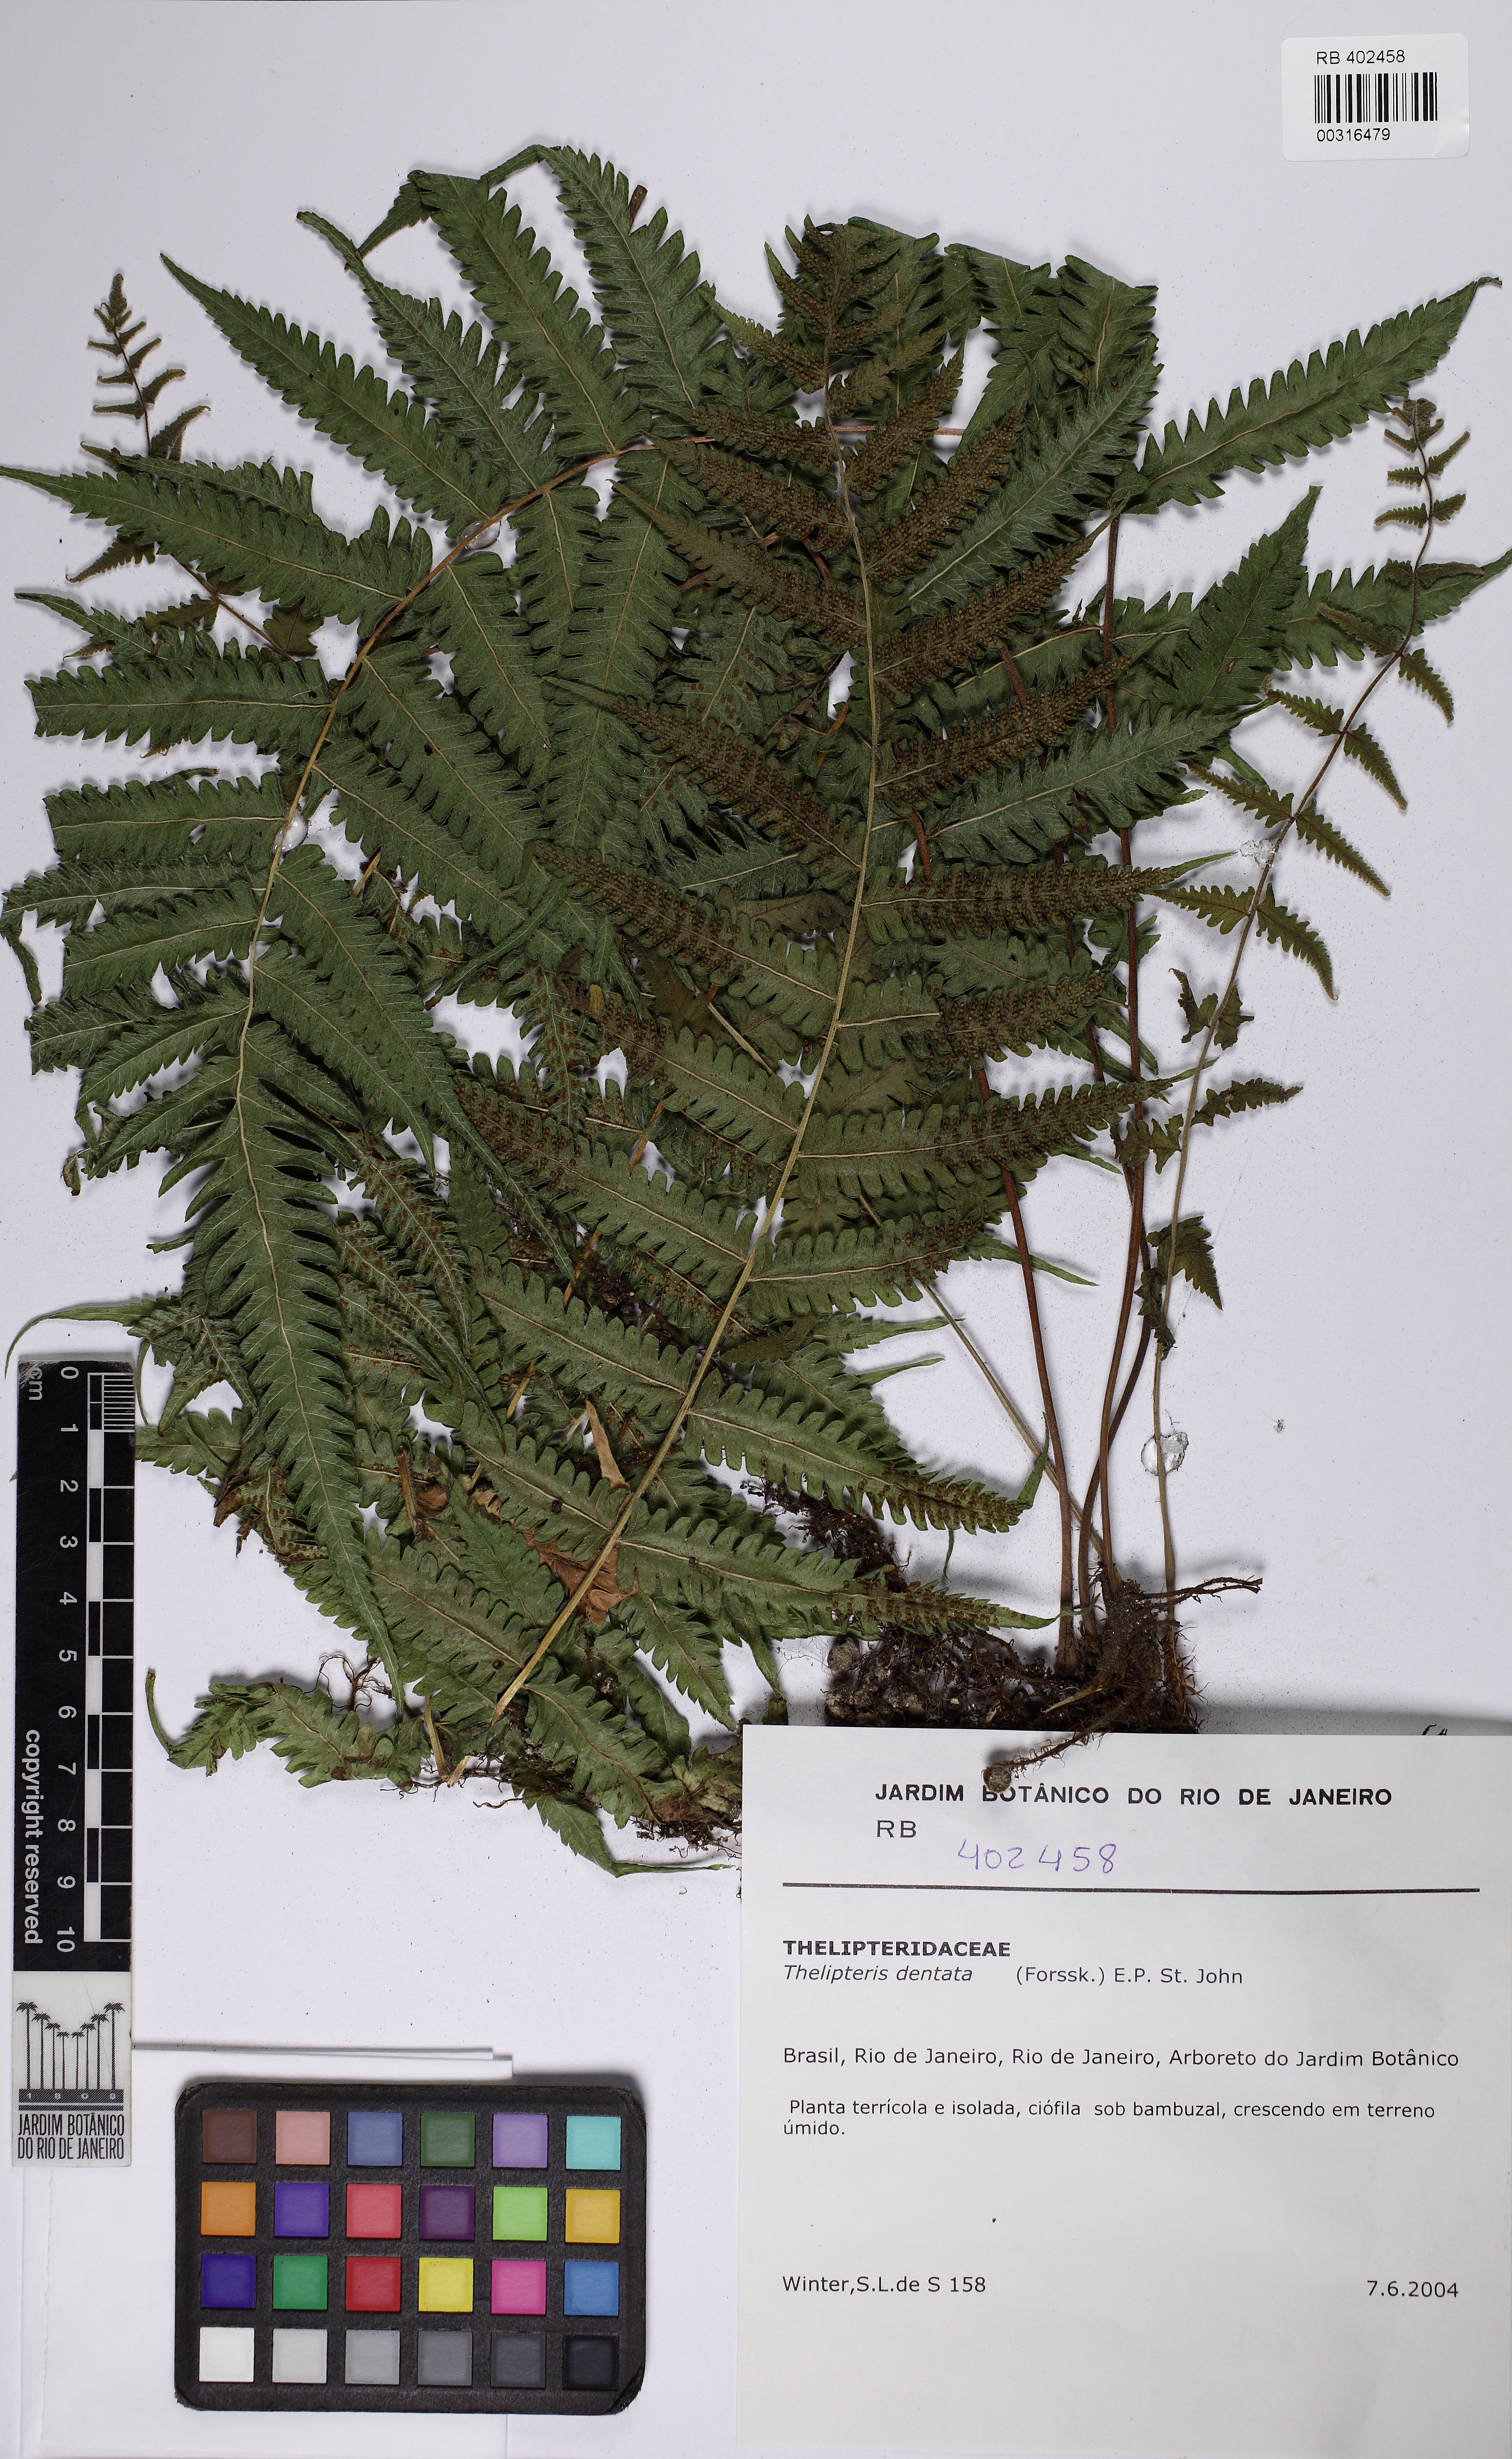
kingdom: Plantae
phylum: Tracheophyta
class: Polypodiopsida
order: Polypodiales
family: Thelypteridaceae
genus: Christella
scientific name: Christella dentata
